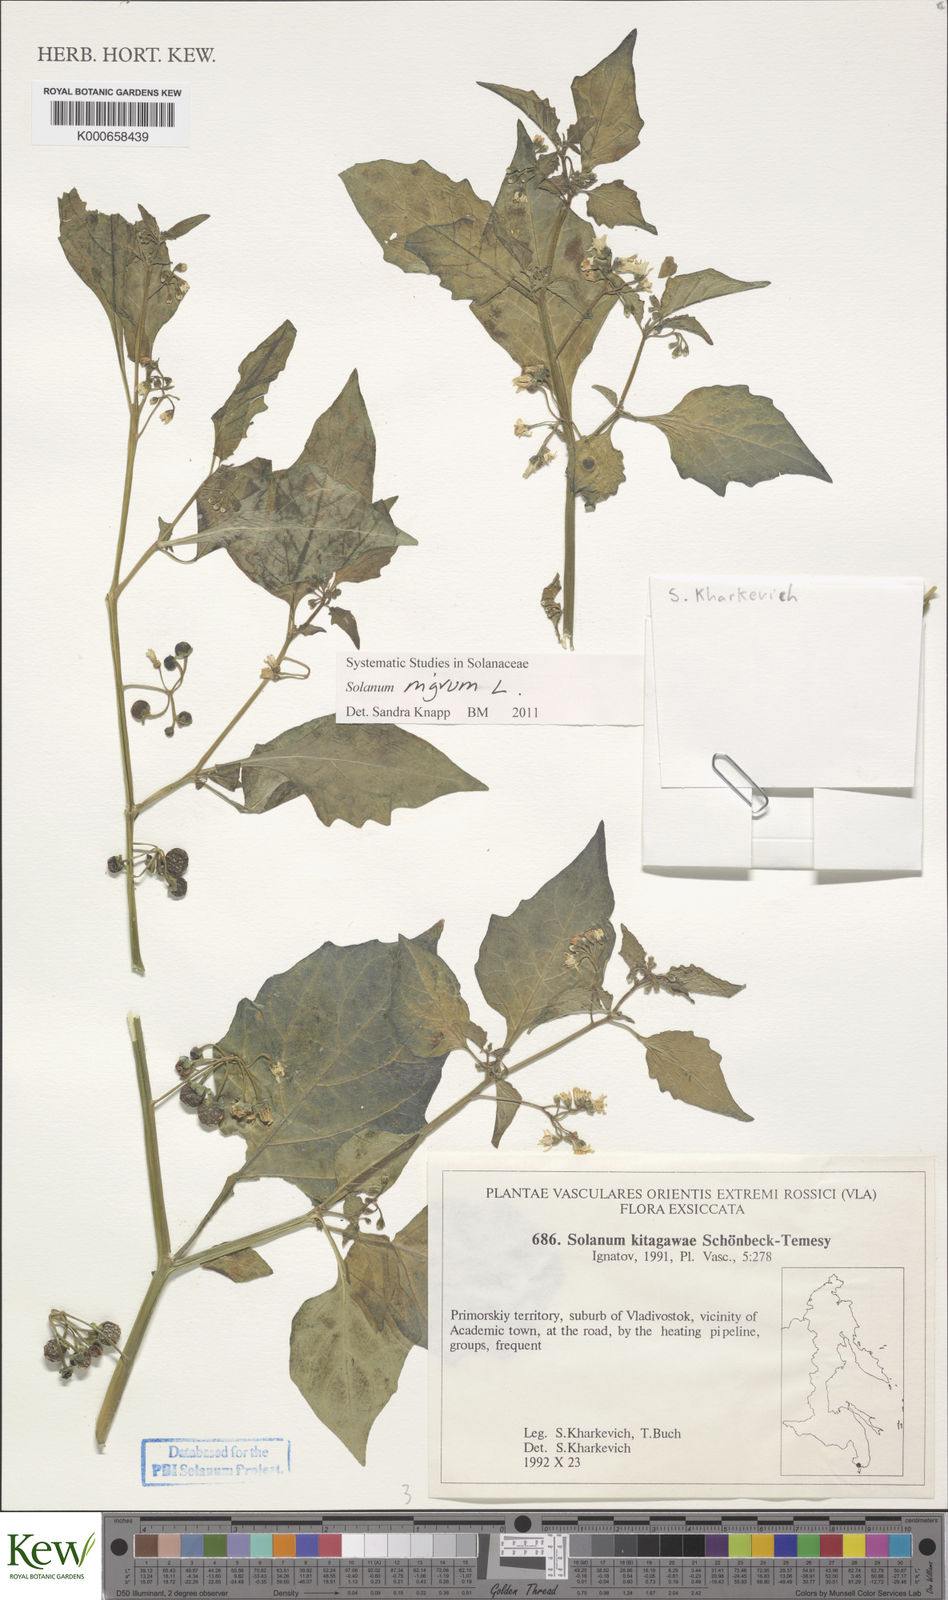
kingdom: Plantae
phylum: Tracheophyta
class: Magnoliopsida
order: Solanales
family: Solanaceae
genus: Solanum
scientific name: Solanum nigrum
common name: Black nightshade
